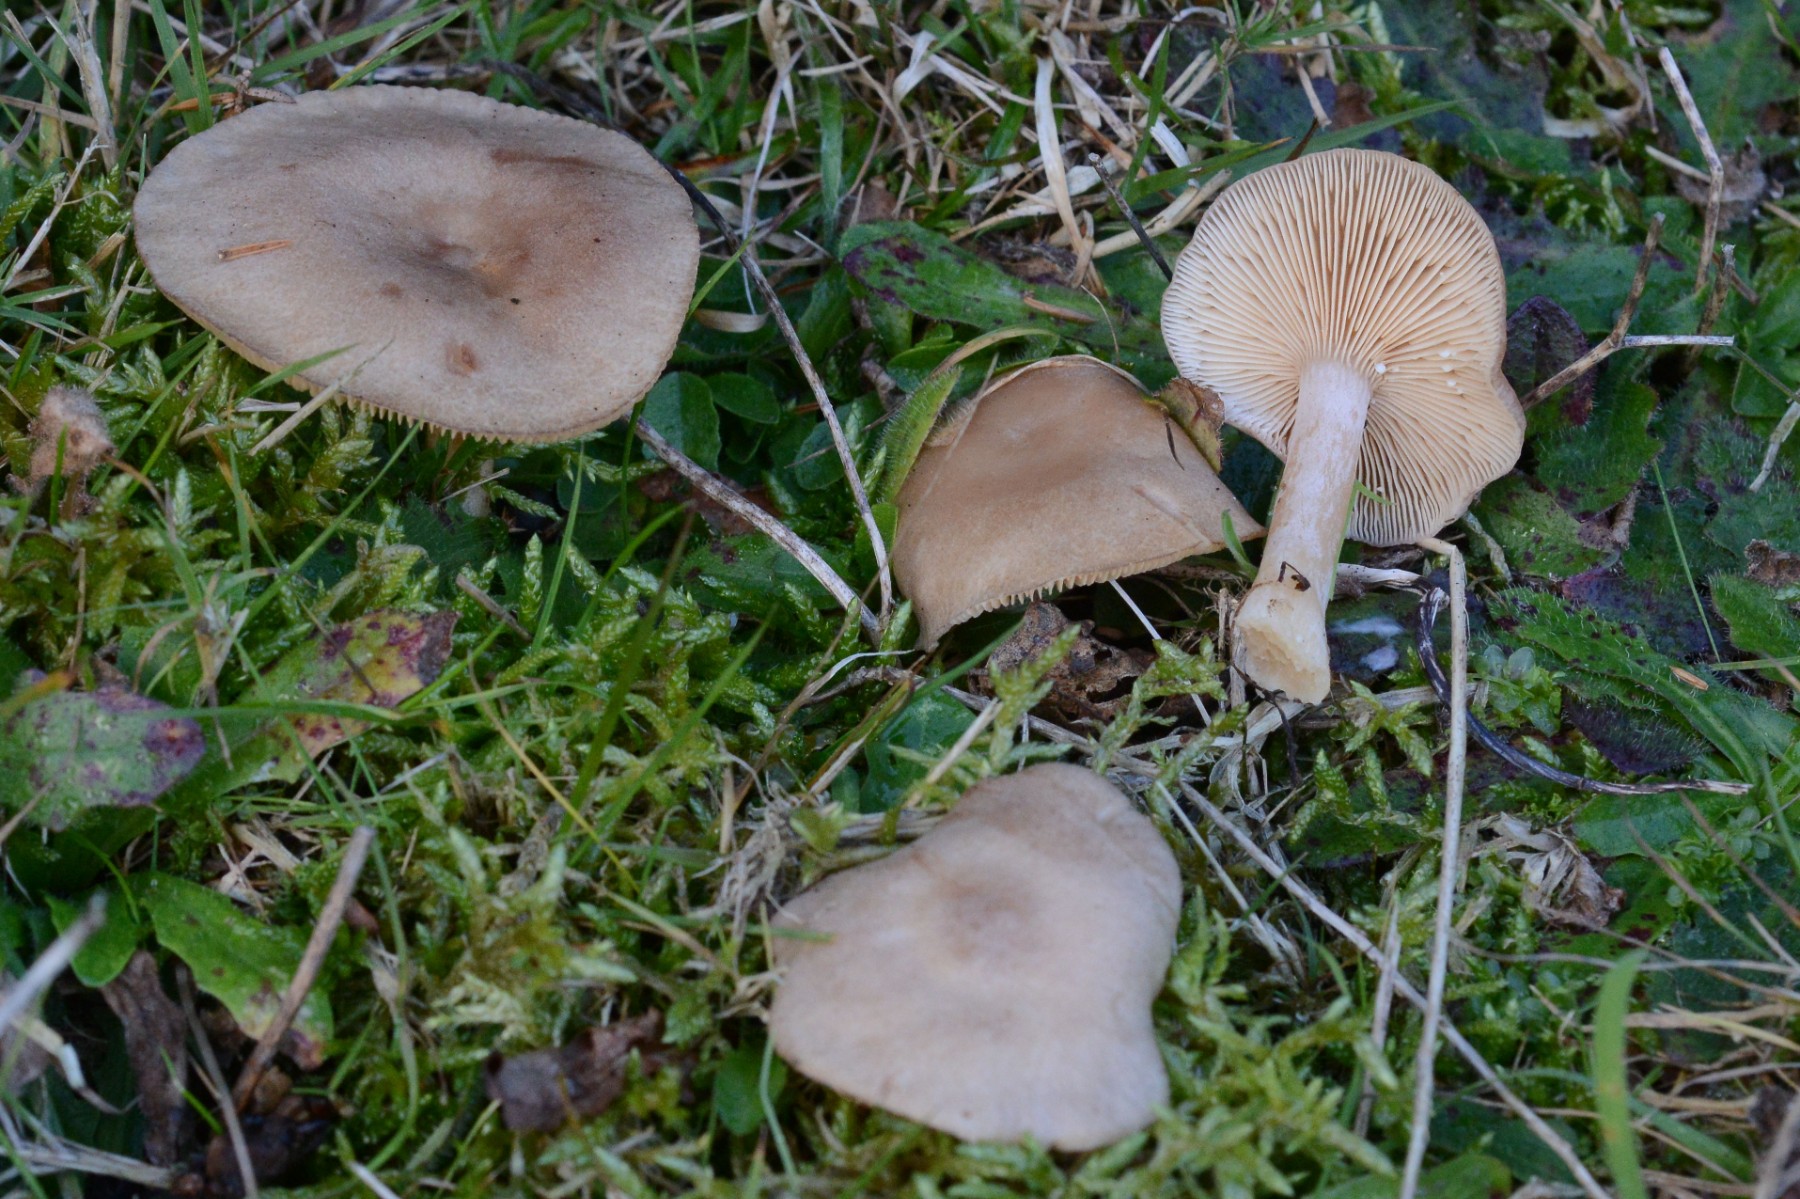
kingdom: Fungi
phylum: Basidiomycota
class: Agaricomycetes
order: Russulales
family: Russulaceae
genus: Lactarius
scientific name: Lactarius glyciosmus
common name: kokos-mælkehat
